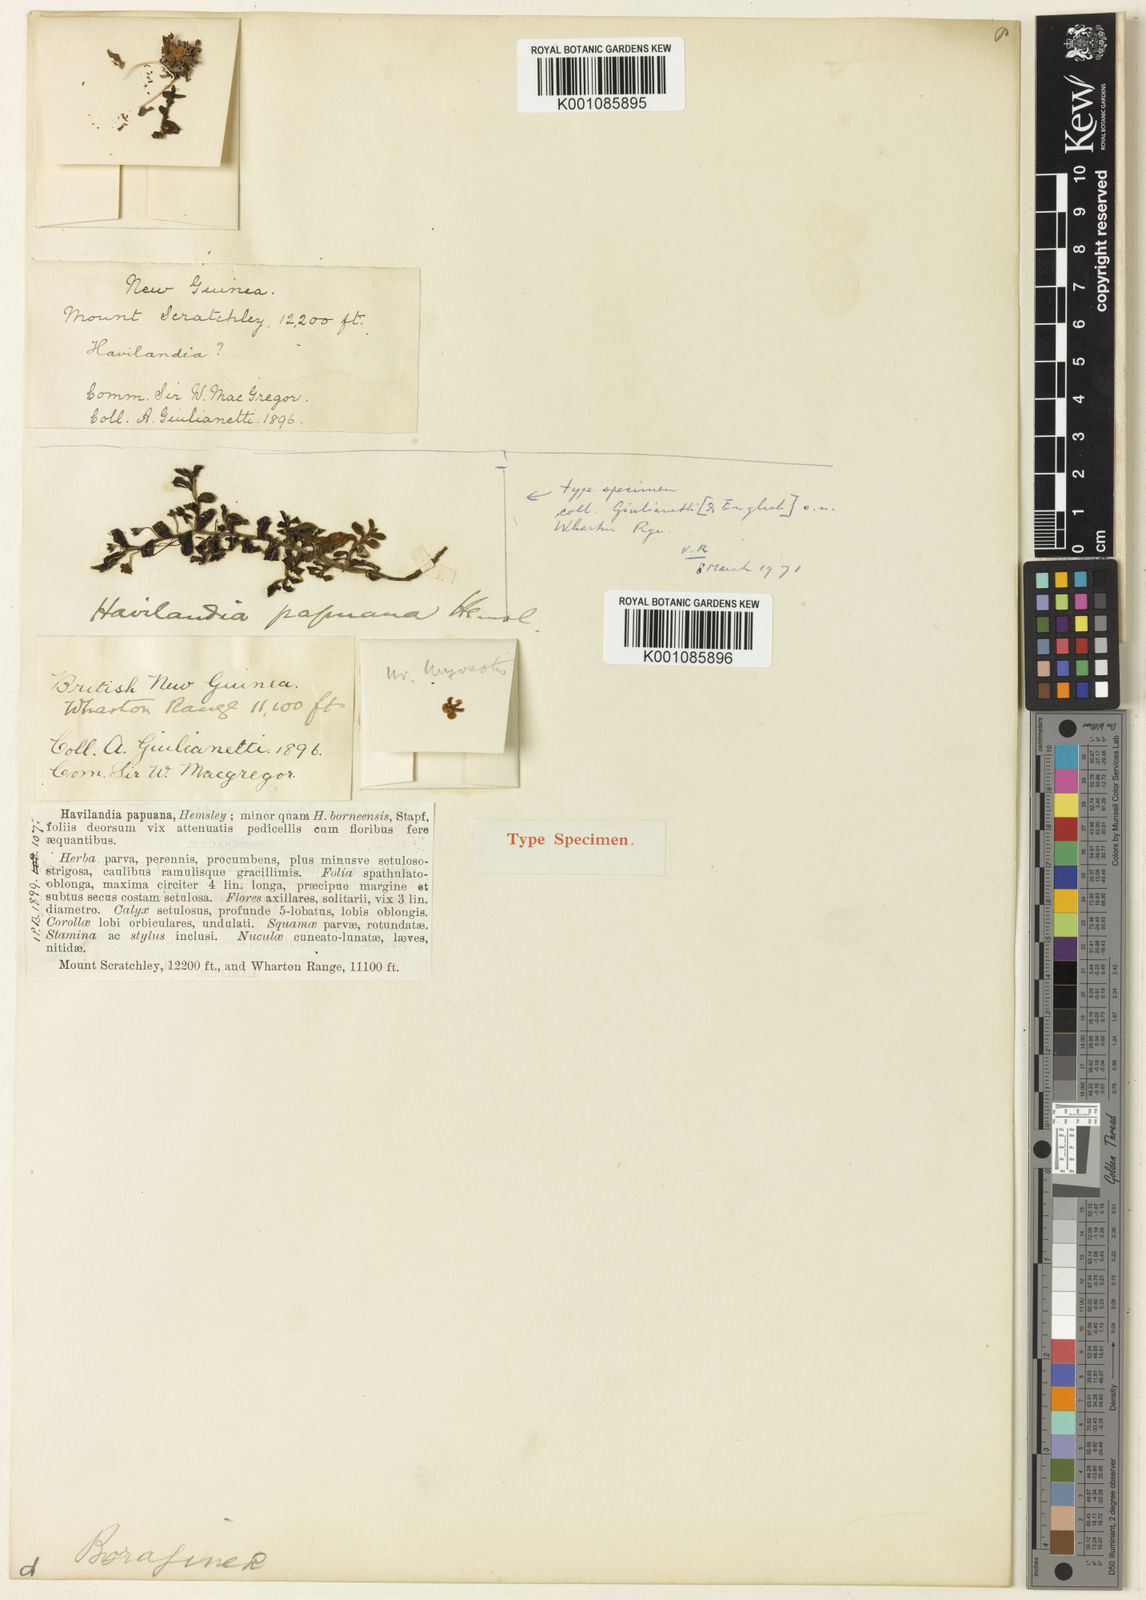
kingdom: Plantae
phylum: Tracheophyta
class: Magnoliopsida
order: Boraginales
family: Boraginaceae
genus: Trigonotis
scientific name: Trigonotis papuana
